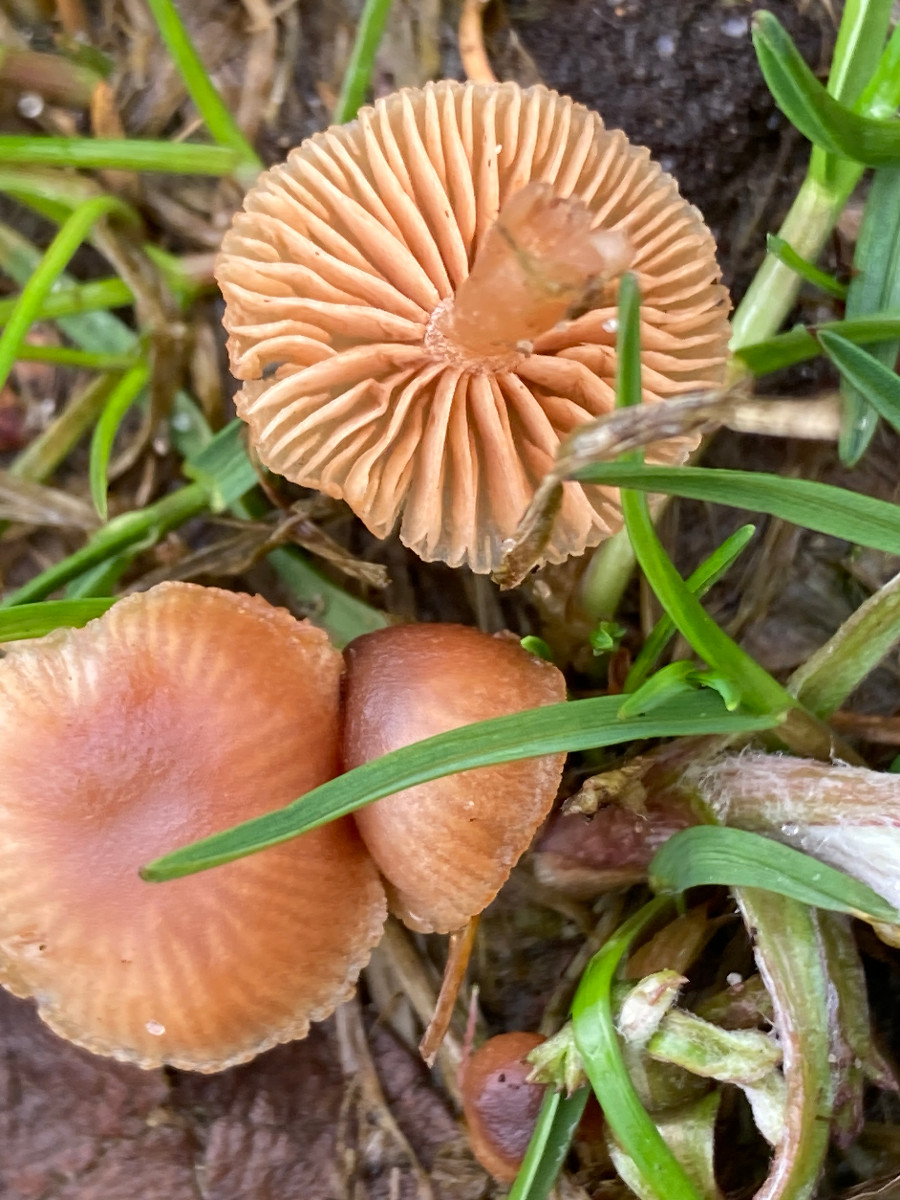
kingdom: Fungi
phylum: Basidiomycota
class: Agaricomycetes
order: Agaricales
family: Tubariaceae
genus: Tubaria
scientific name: Tubaria furfuracea
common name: kliddet fnughat
